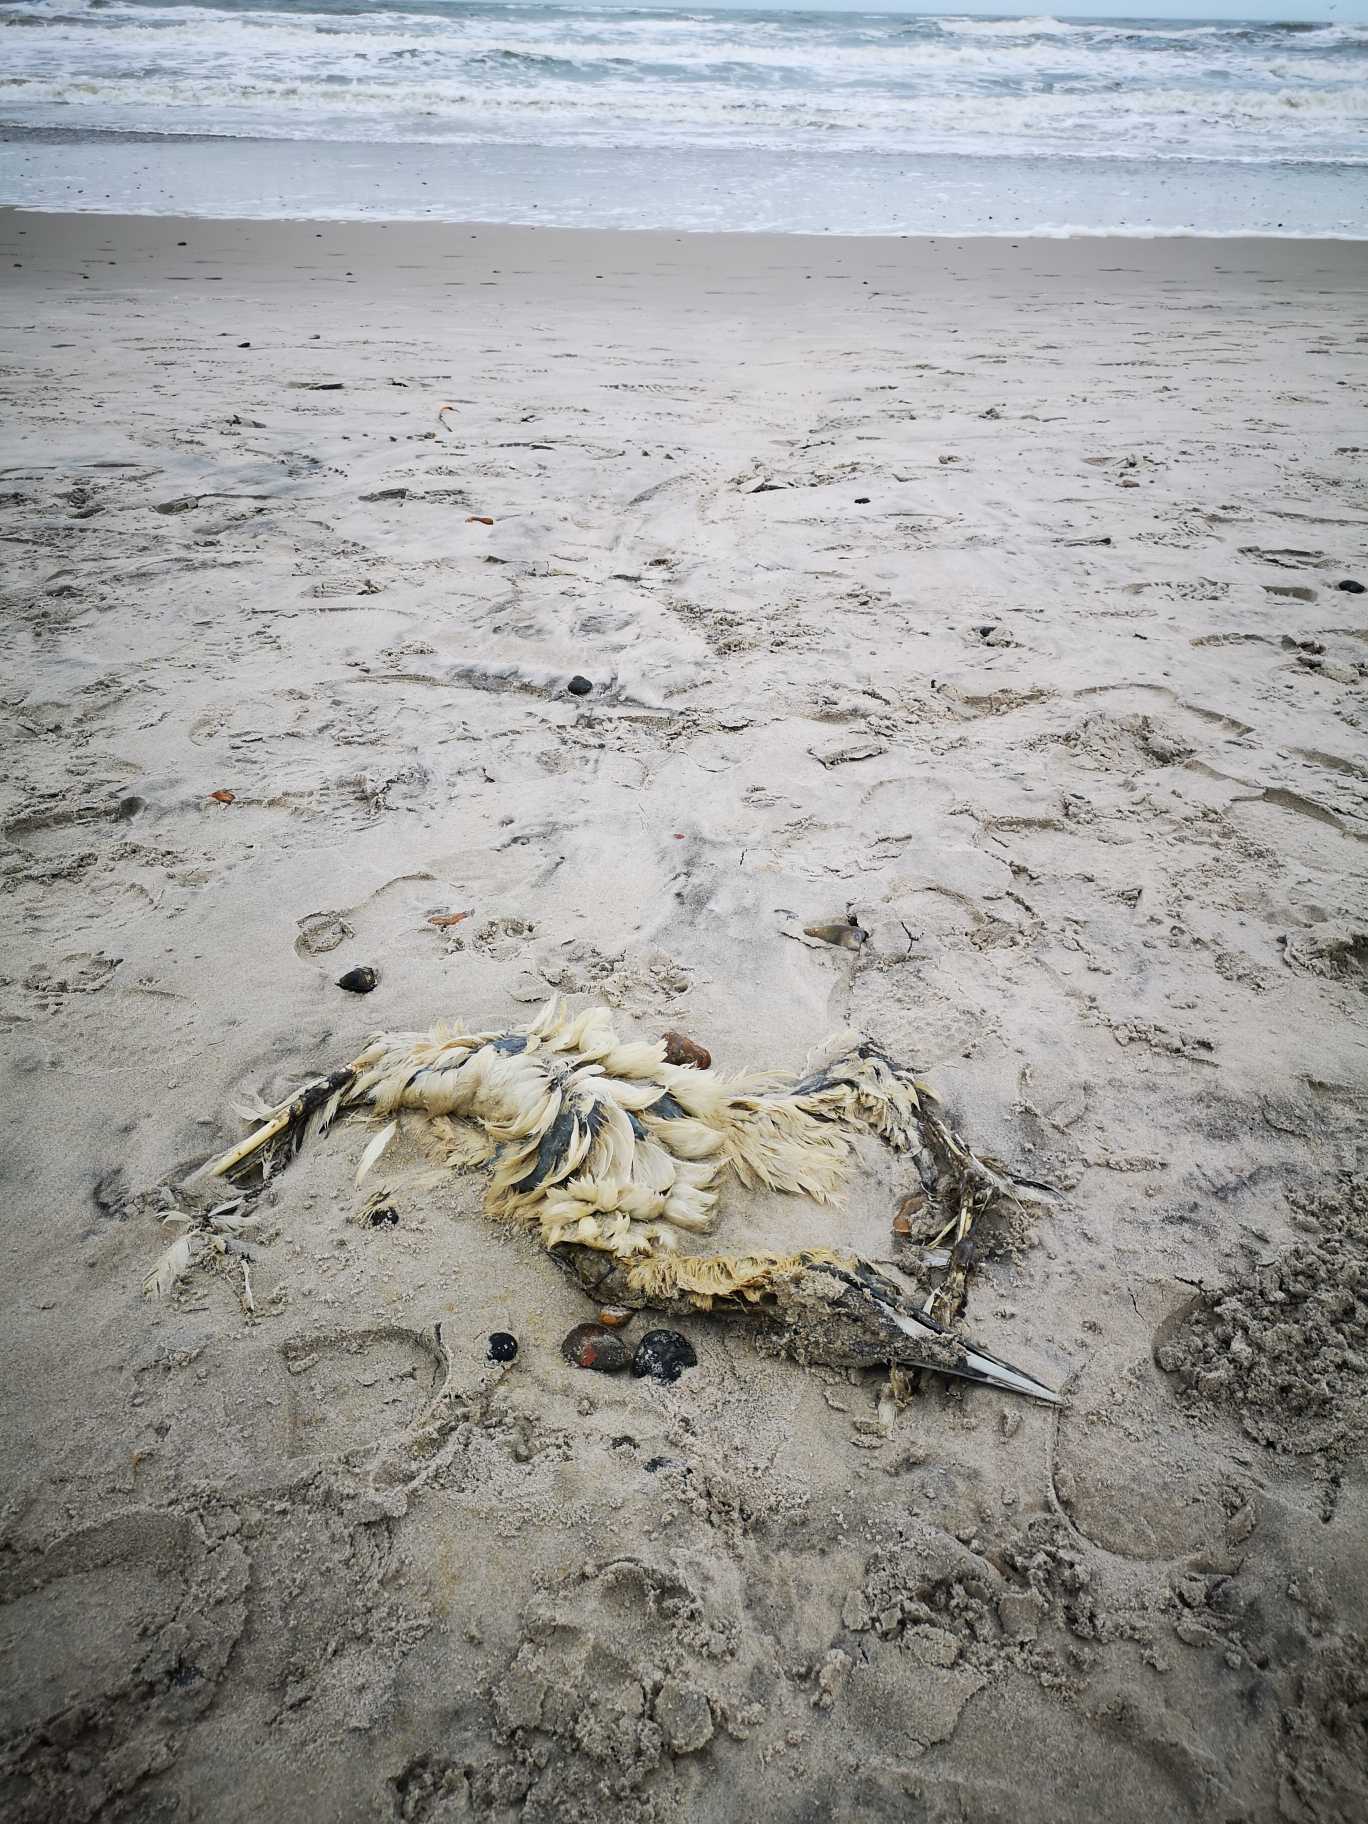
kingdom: Animalia
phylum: Chordata
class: Aves
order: Suliformes
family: Sulidae
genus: Morus
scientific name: Morus bassanus
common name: Sule
